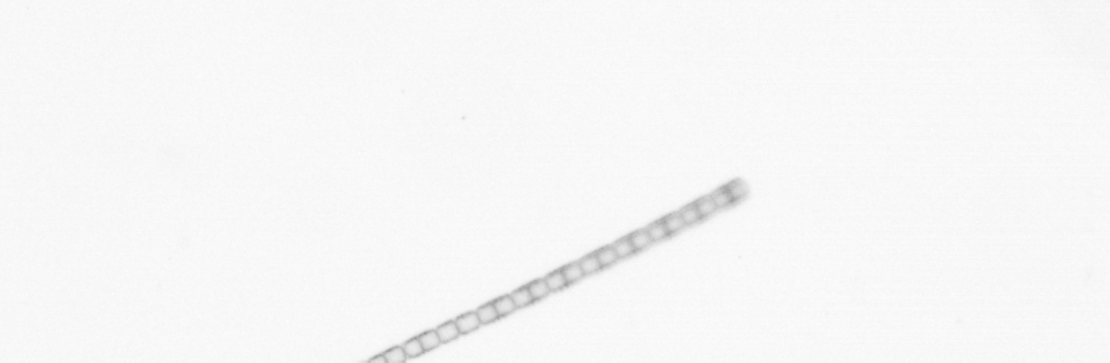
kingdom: Chromista
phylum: Ochrophyta
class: Bacillariophyceae
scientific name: Bacillariophyceae
